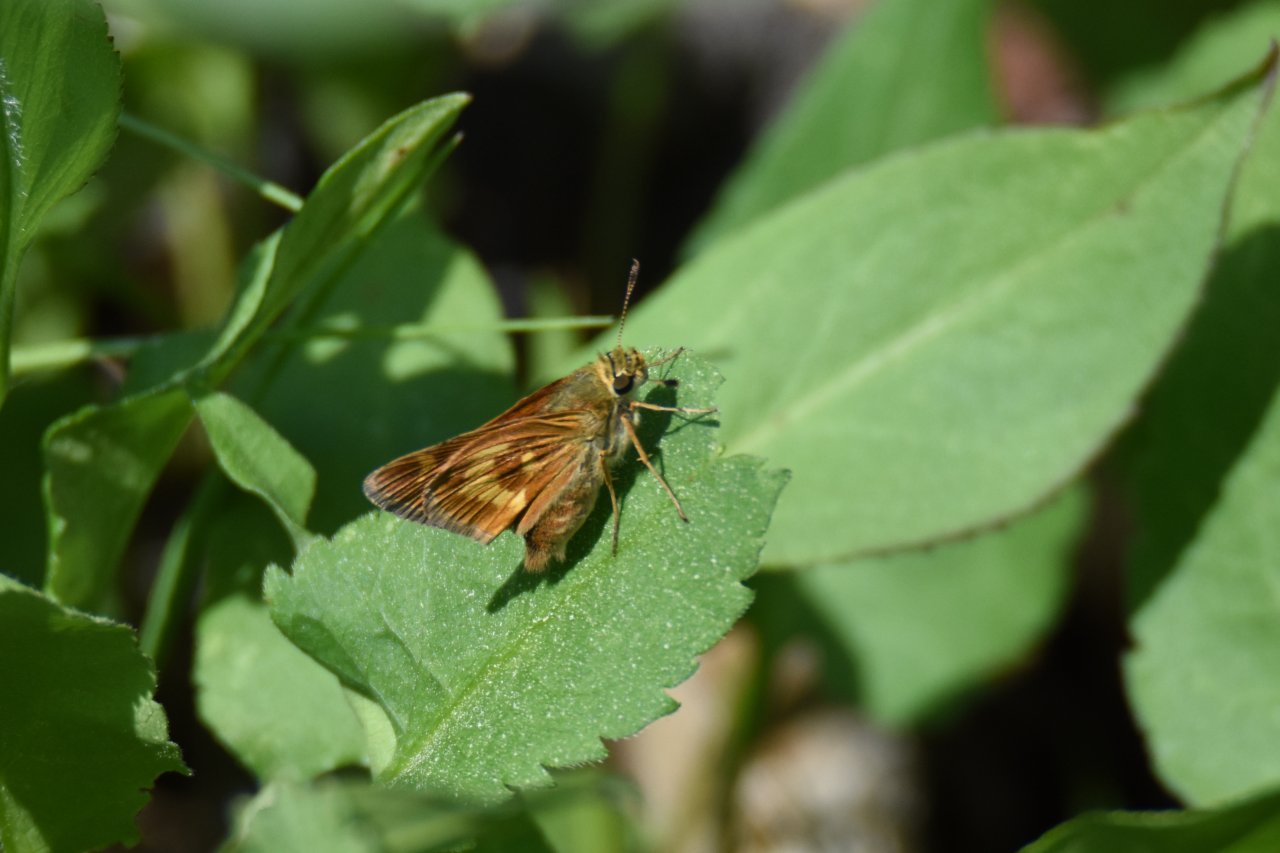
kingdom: Animalia
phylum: Arthropoda
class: Insecta
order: Lepidoptera
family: Hesperiidae
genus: Hesperia
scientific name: Hesperia sassacus
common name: Sassacus Skipper
